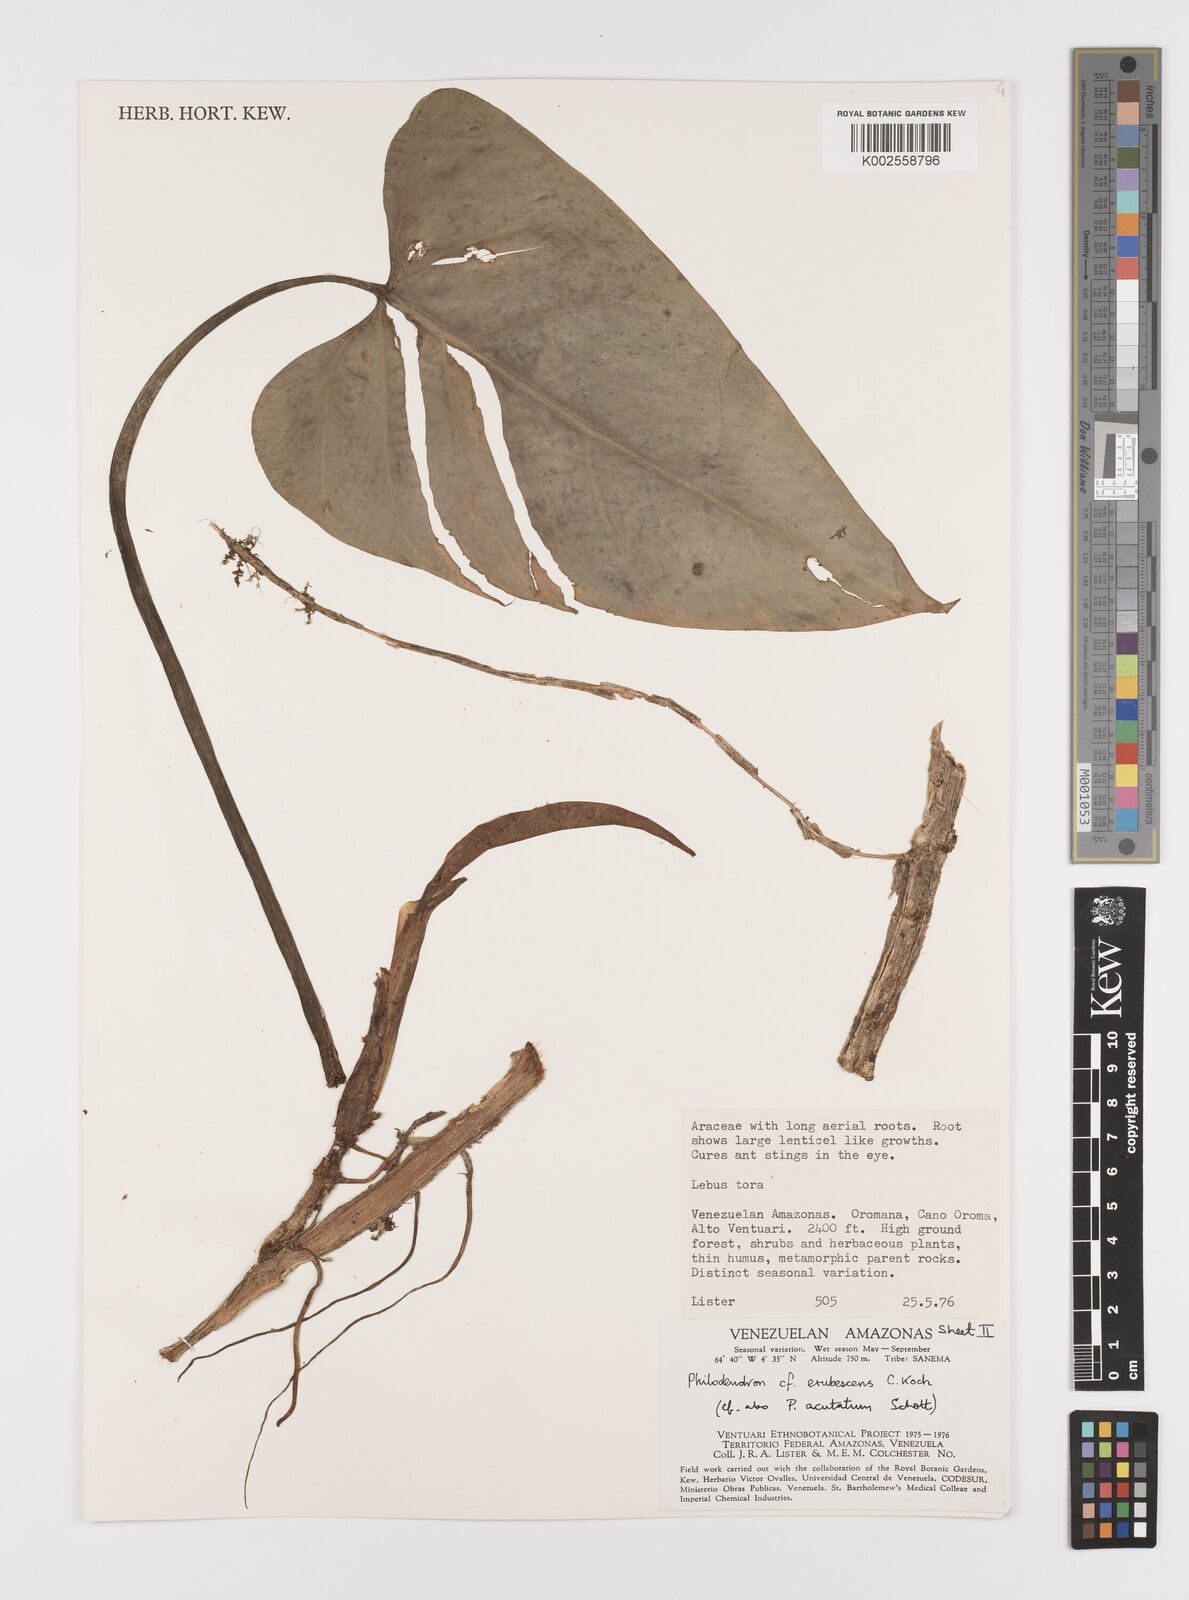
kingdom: Plantae
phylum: Tracheophyta
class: Liliopsida
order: Alismatales
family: Araceae
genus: Philodendron
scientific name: Philodendron erubescens
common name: Philodendron
